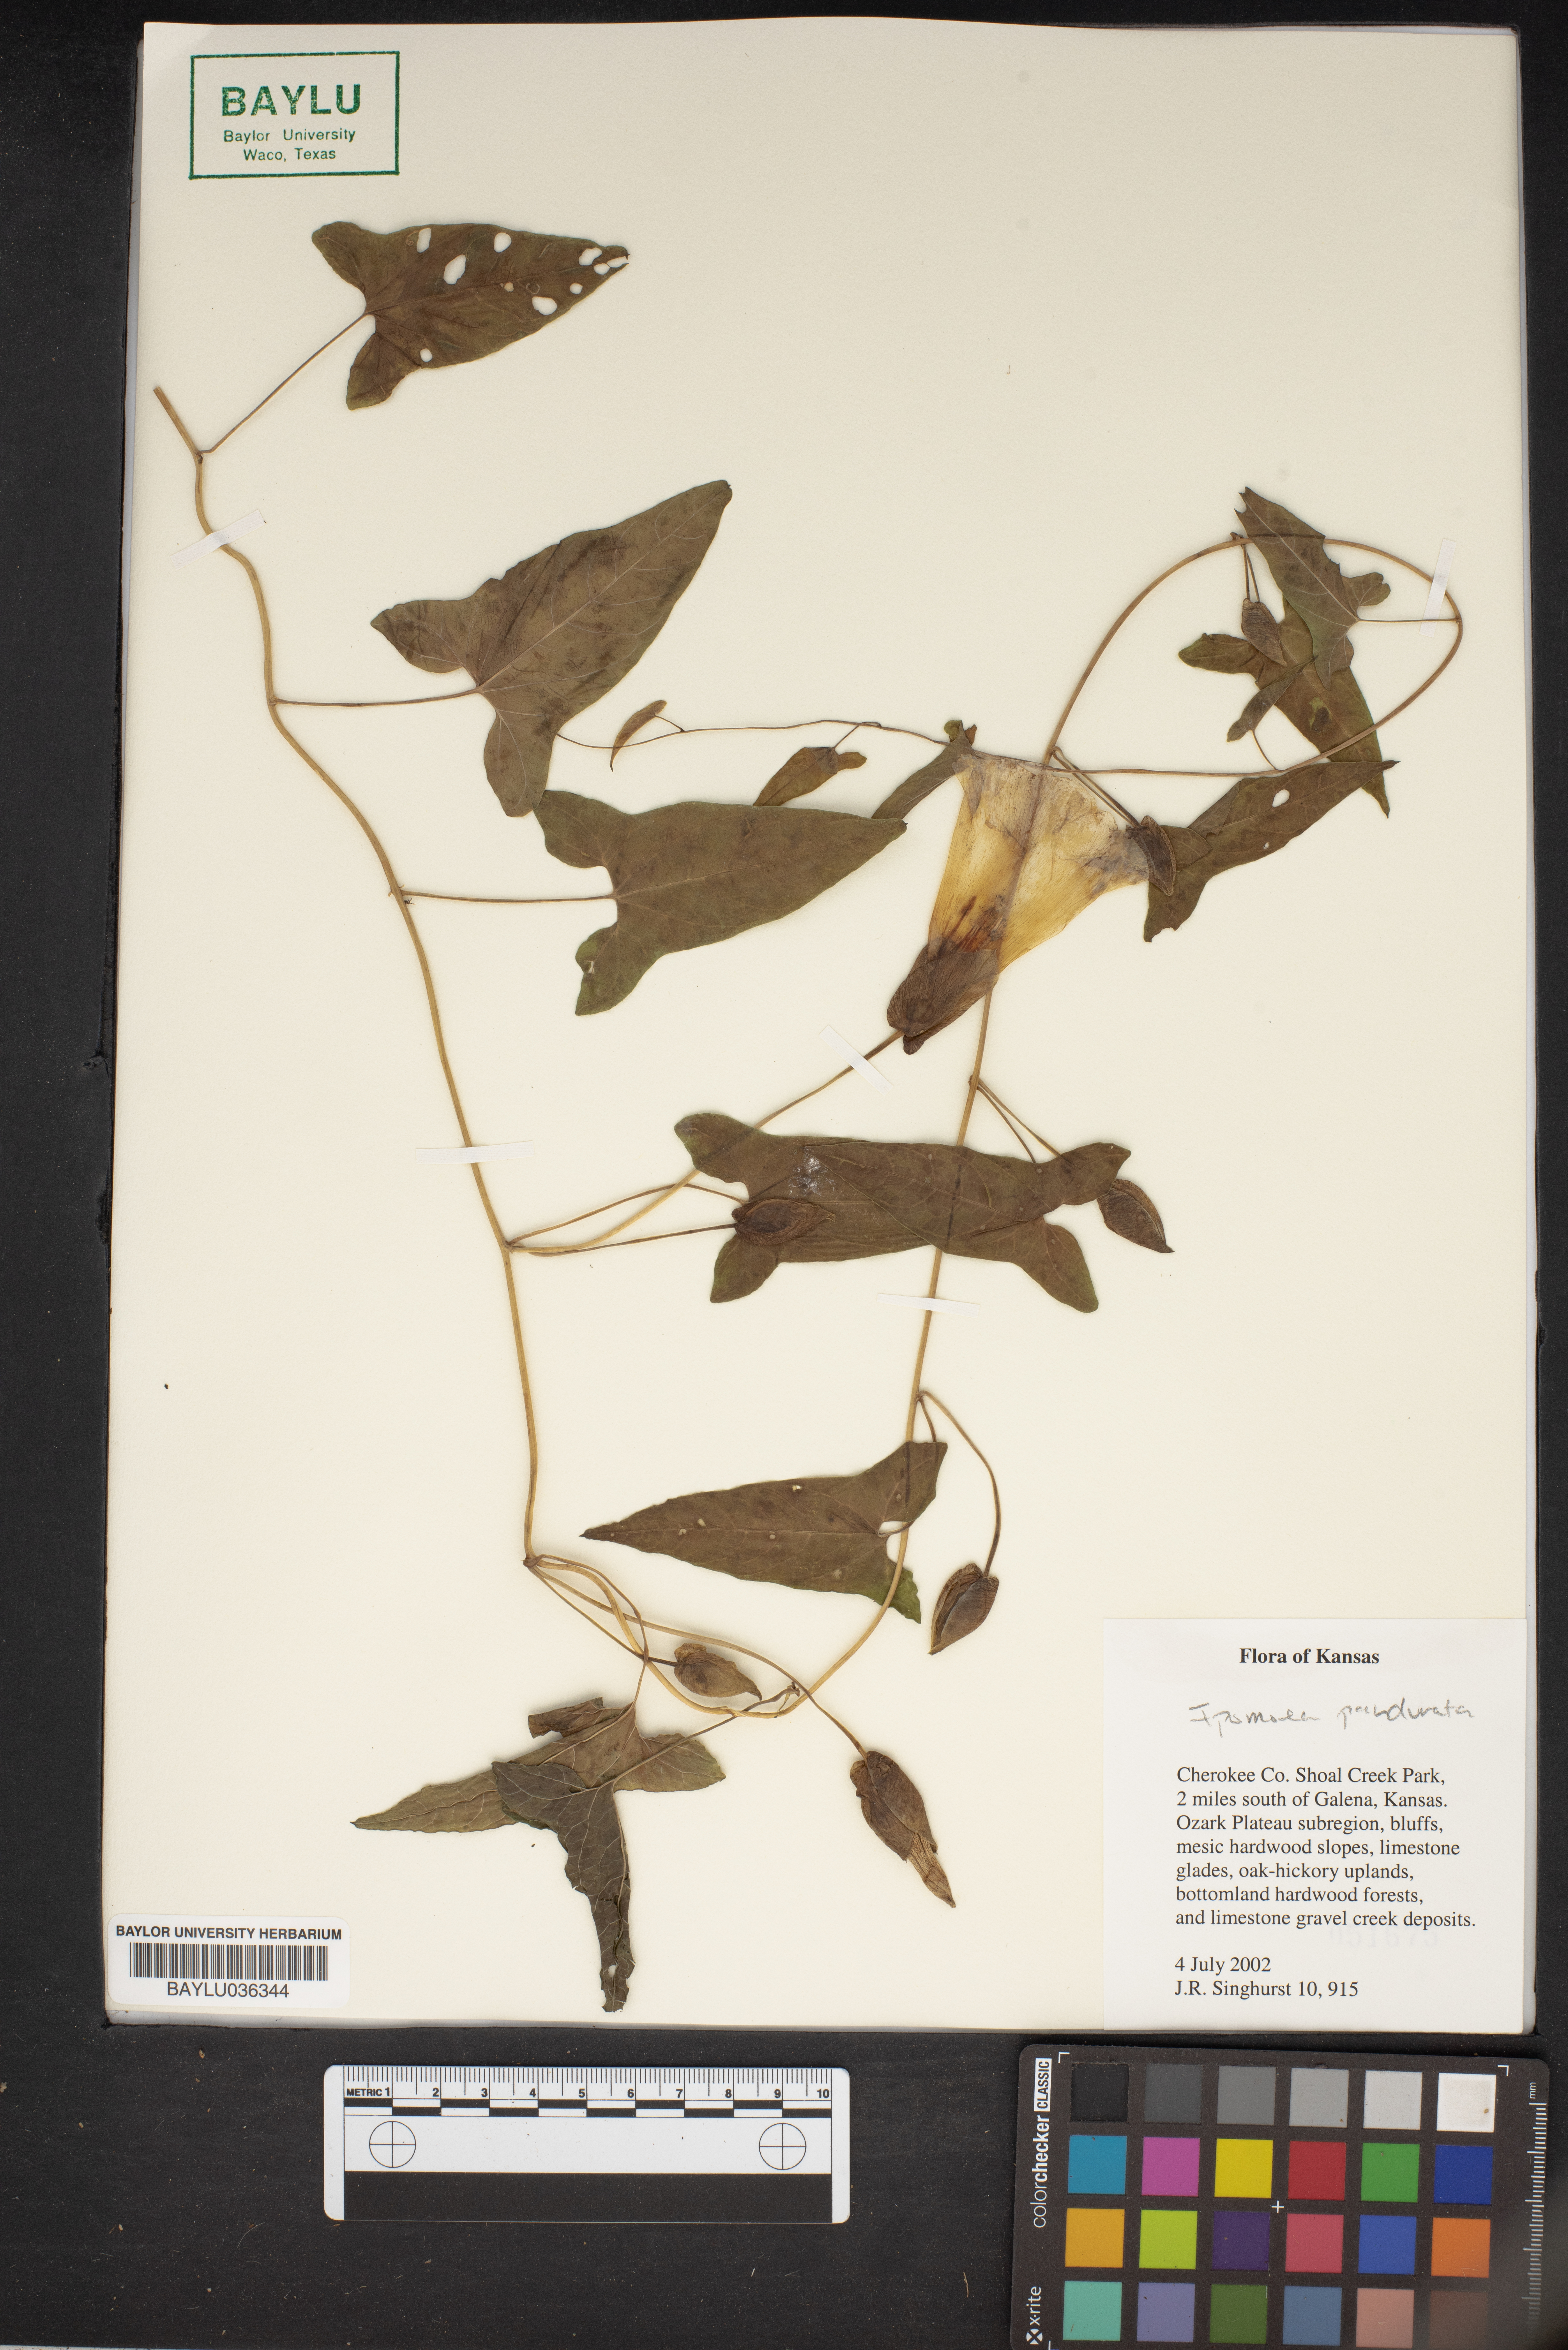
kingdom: Plantae
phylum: Tracheophyta
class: Magnoliopsida
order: Solanales
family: Convolvulaceae
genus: Ipomoea
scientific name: Ipomoea pandurata
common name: Man-of-the-earth
